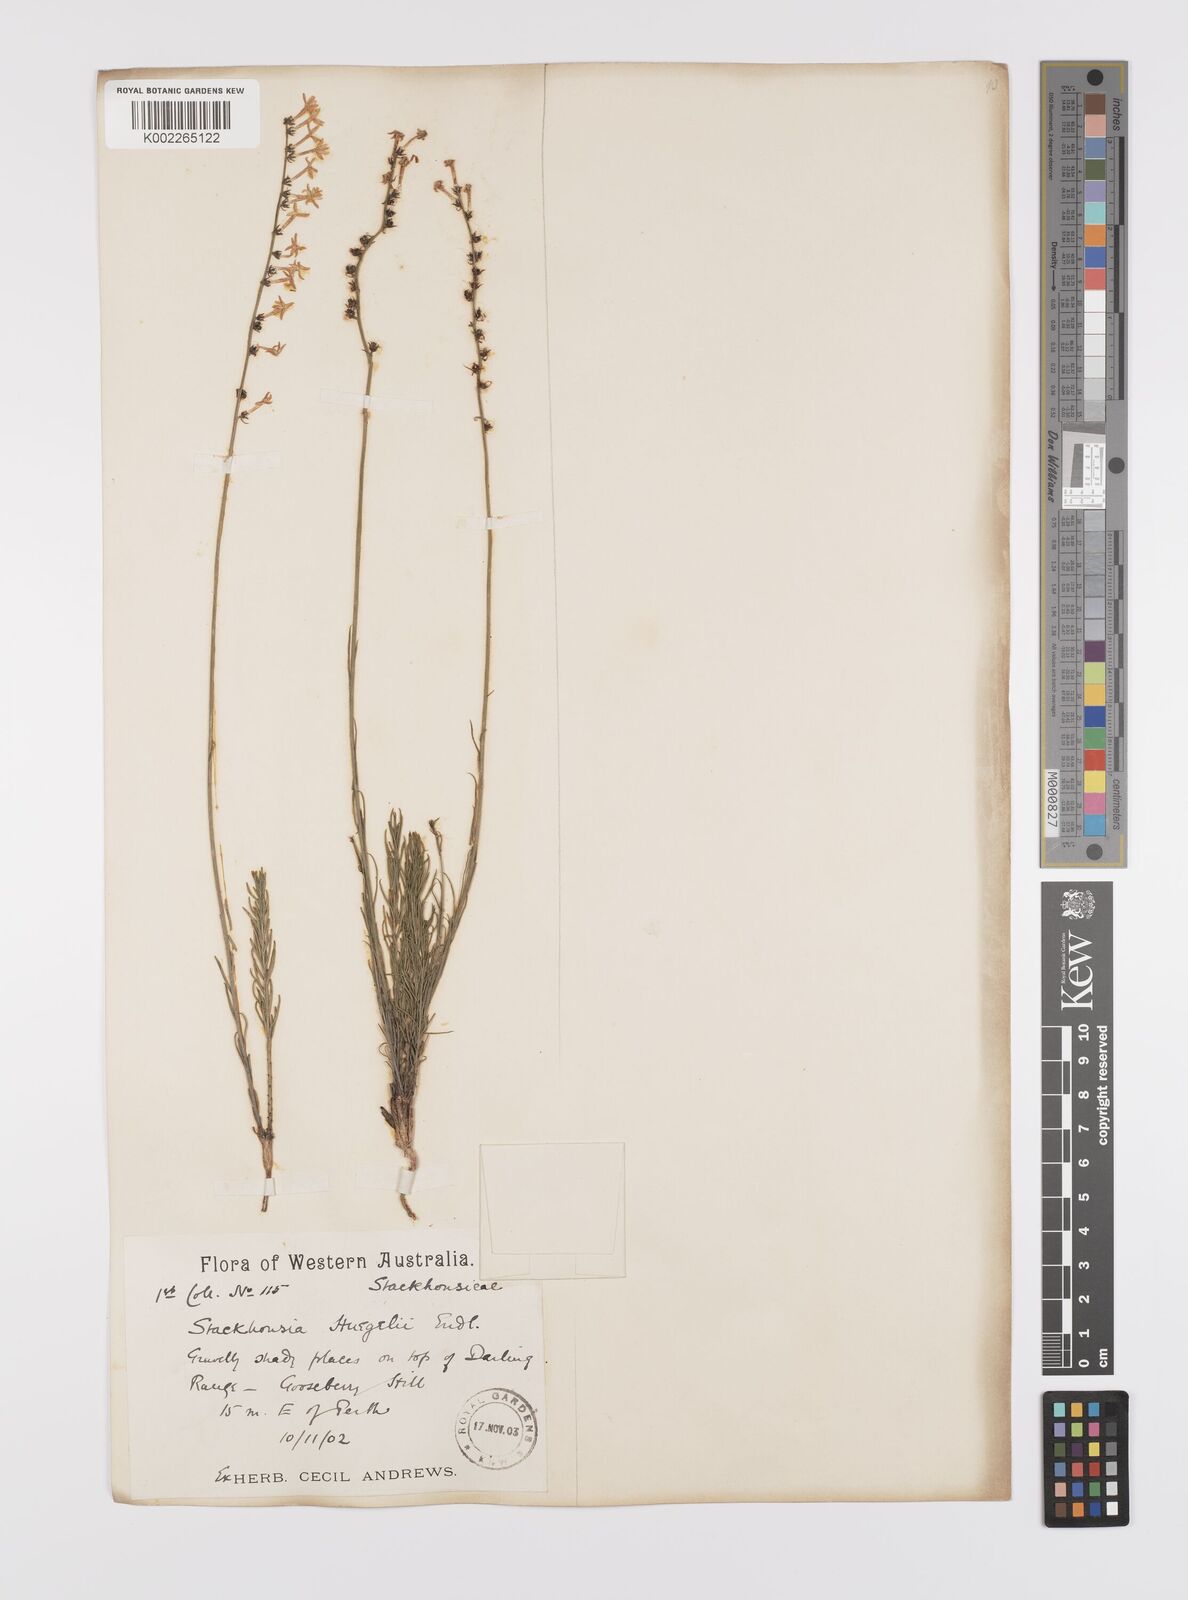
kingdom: Plantae
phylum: Tracheophyta
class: Magnoliopsida
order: Celastrales
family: Celastraceae
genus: Stackhousia
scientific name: Stackhousia monogyna
